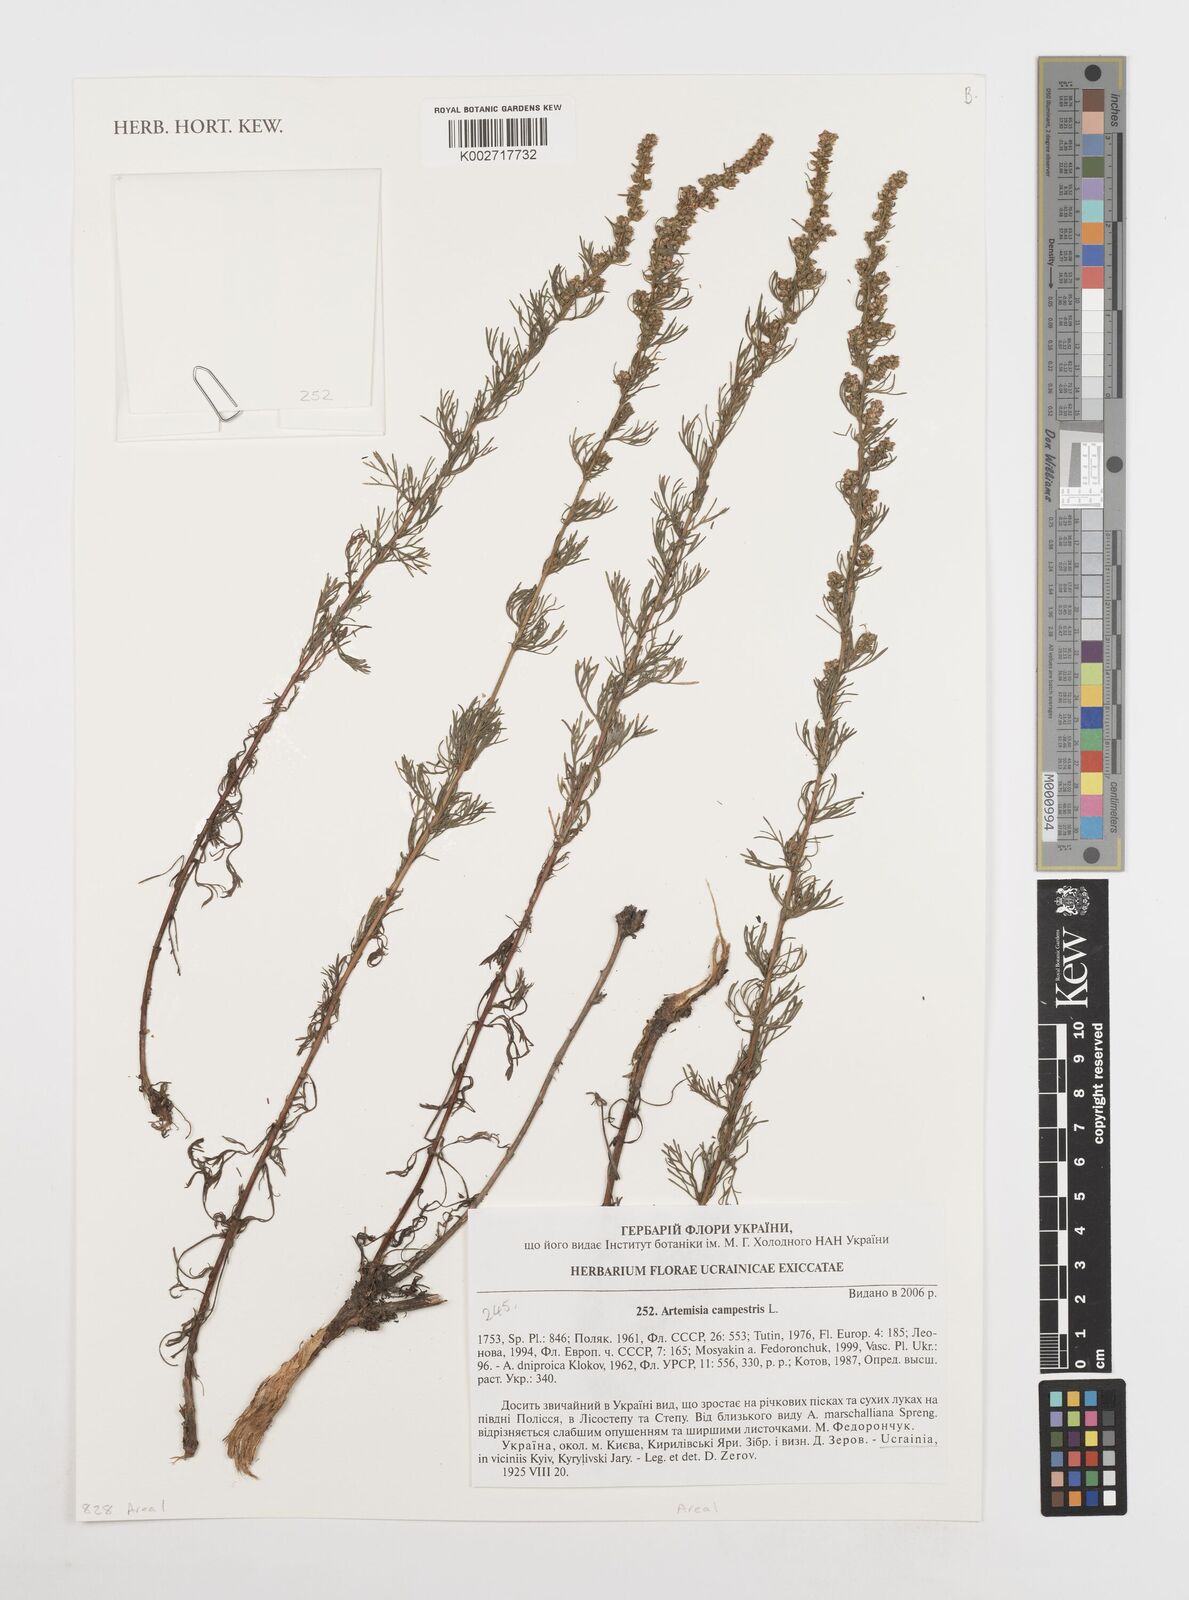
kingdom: Plantae
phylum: Tracheophyta
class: Magnoliopsida
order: Asterales
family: Asteraceae
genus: Artemisia
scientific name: Artemisia campestris
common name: Field wormwood
